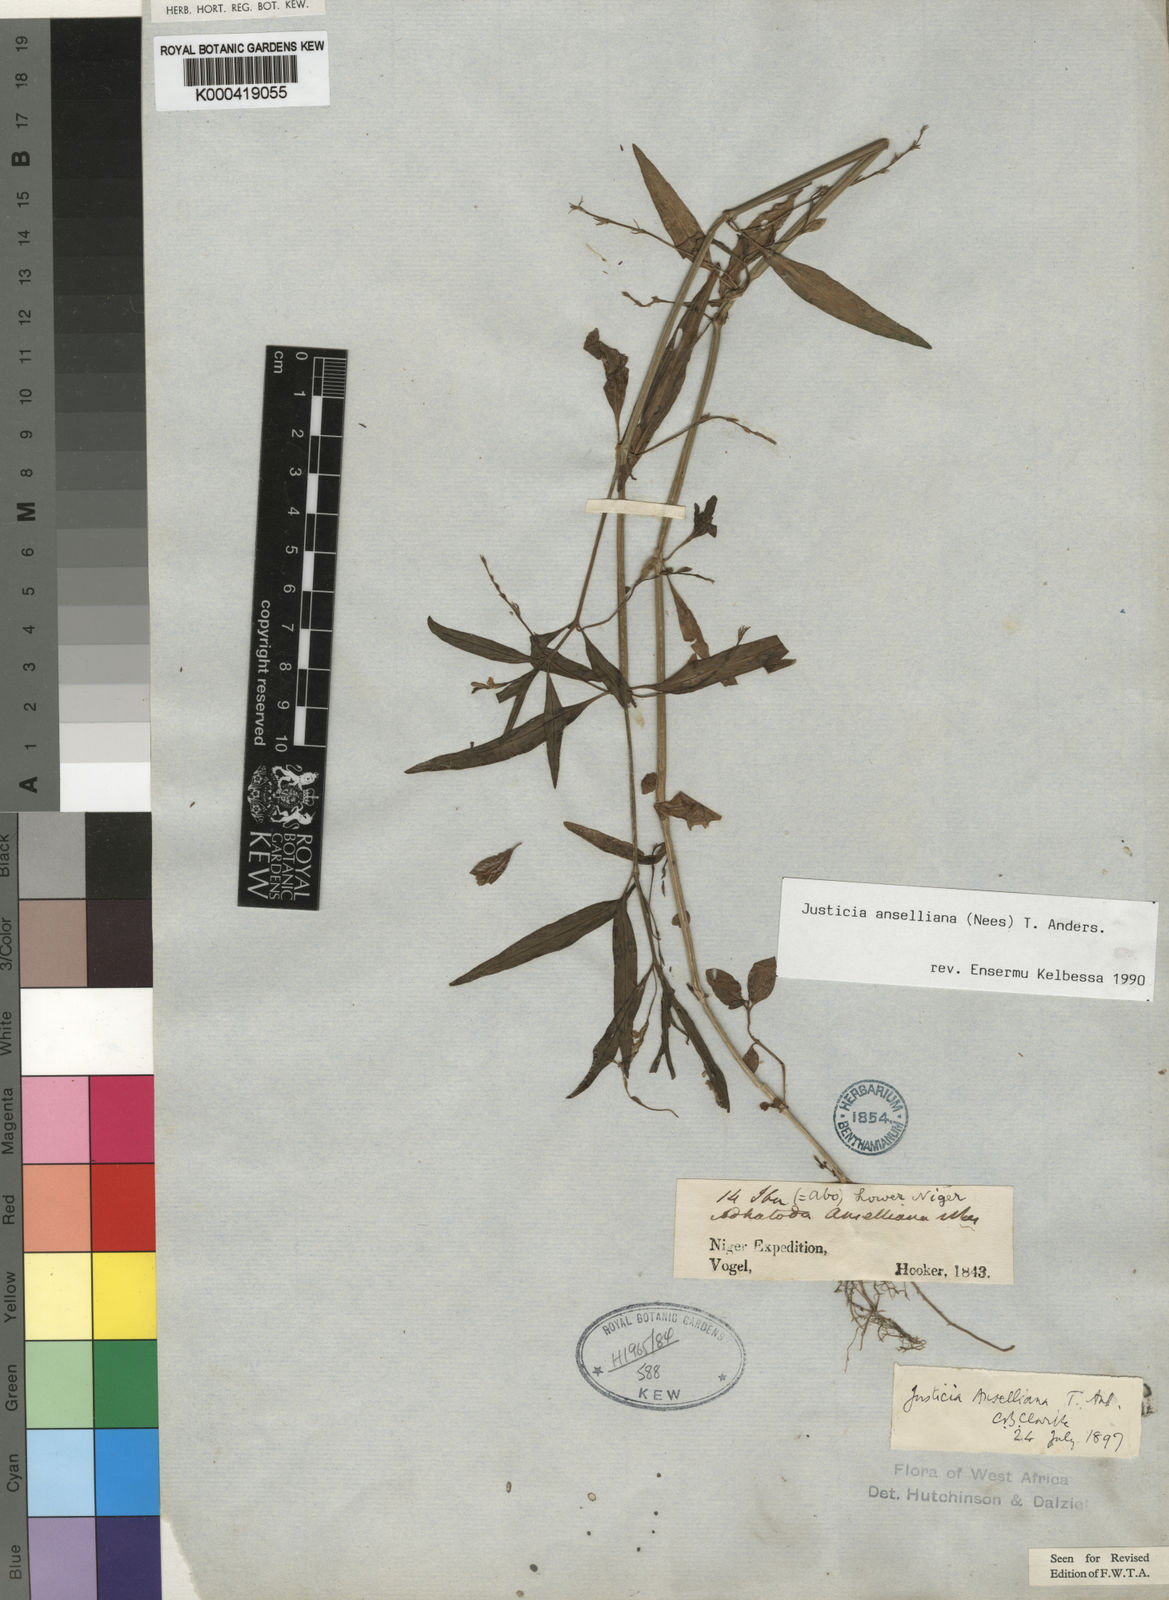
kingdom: Plantae
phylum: Tracheophyta
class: Magnoliopsida
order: Lamiales
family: Acanthaceae
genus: Justicia
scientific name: Justicia anselliana
